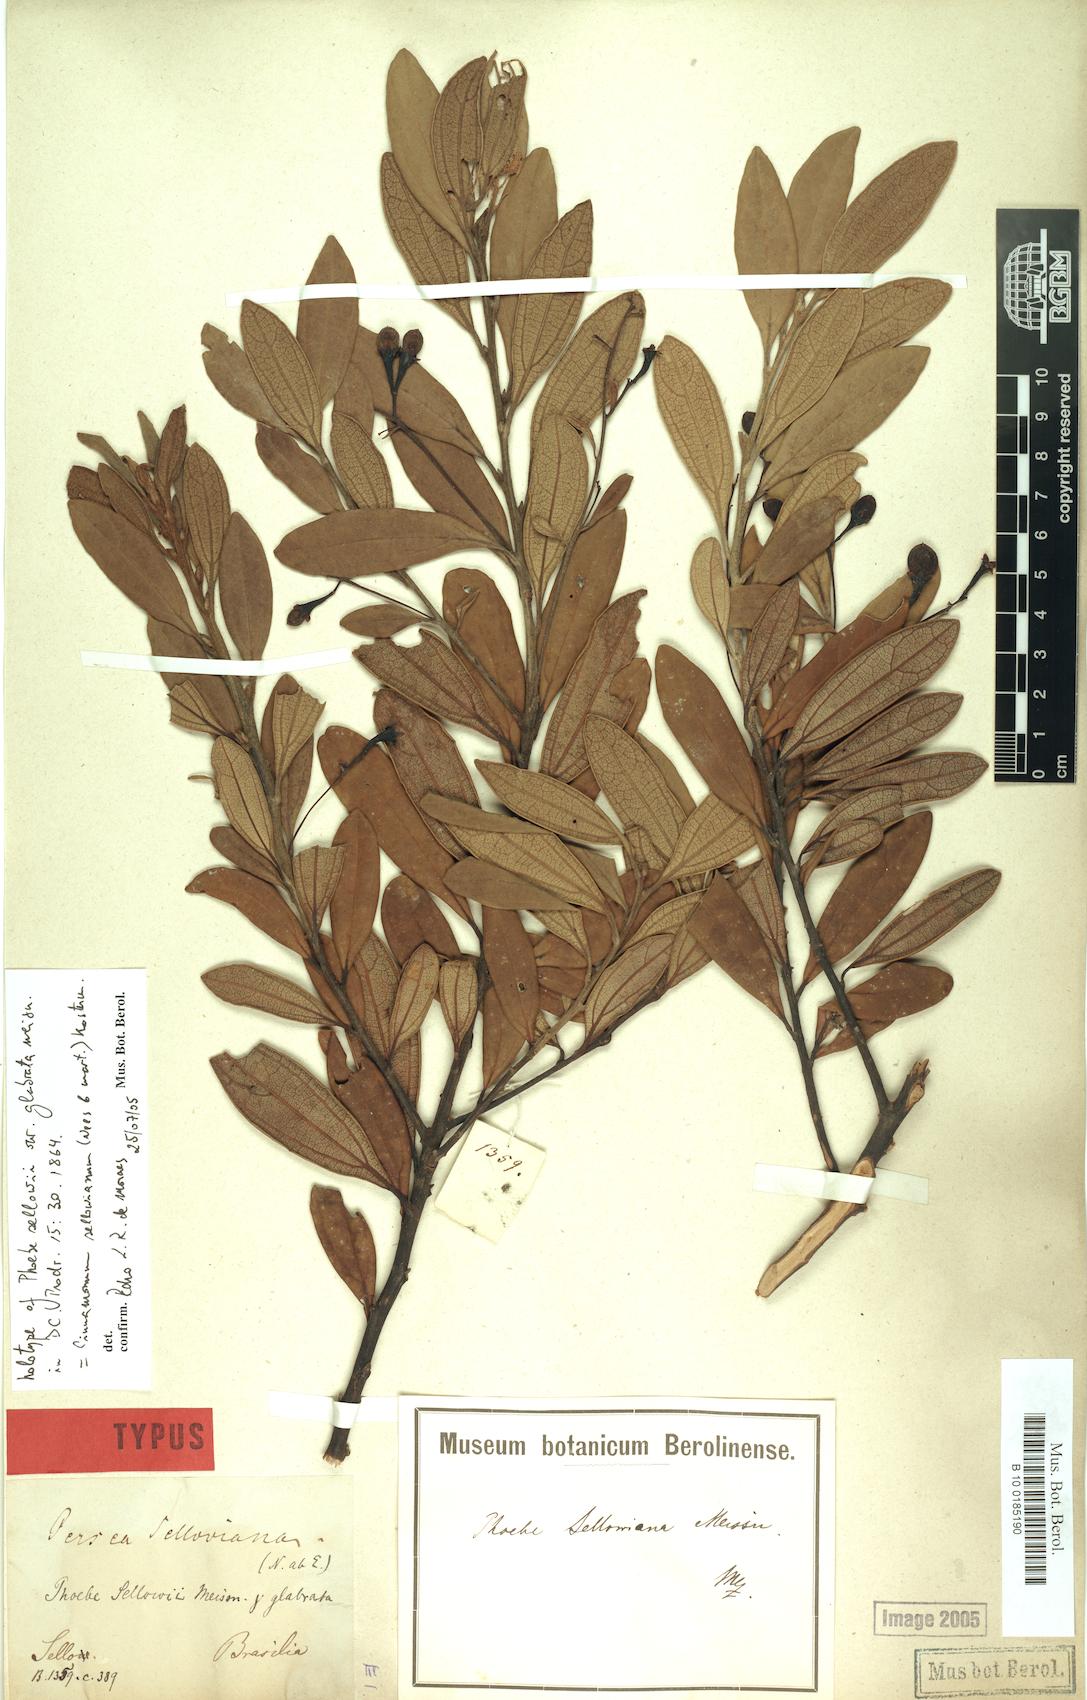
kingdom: Plantae
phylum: Tracheophyta
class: Magnoliopsida
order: Laurales
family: Lauraceae
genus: Aiouea
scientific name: Aiouea sellowiana
